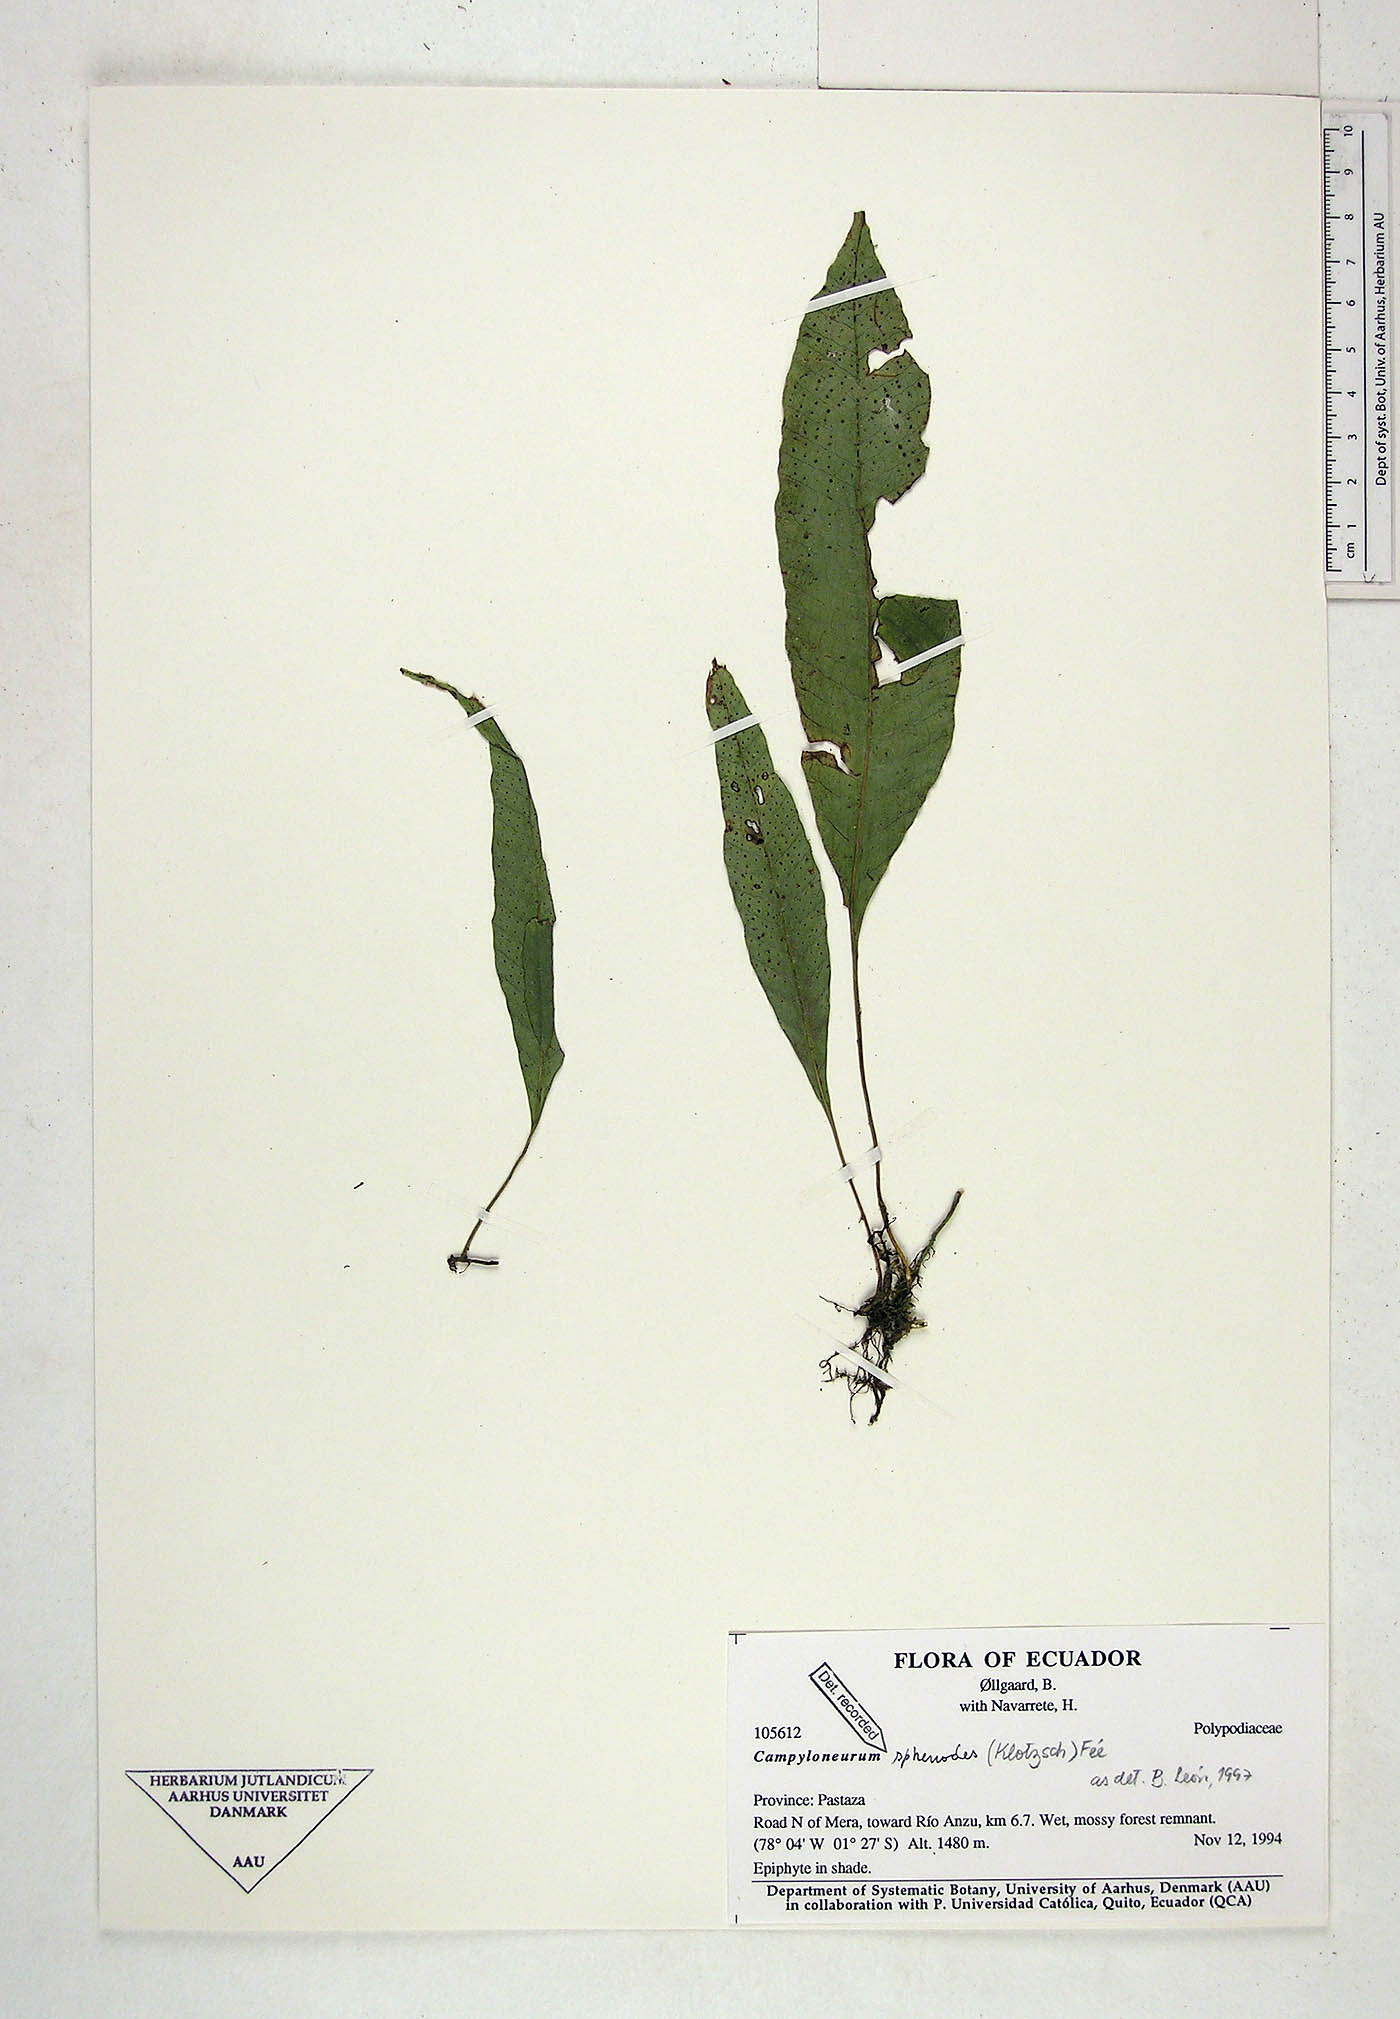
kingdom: Plantae
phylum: Tracheophyta
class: Polypodiopsida
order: Polypodiales
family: Polypodiaceae
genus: Campyloneurum
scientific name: Campyloneurum sphenodes
